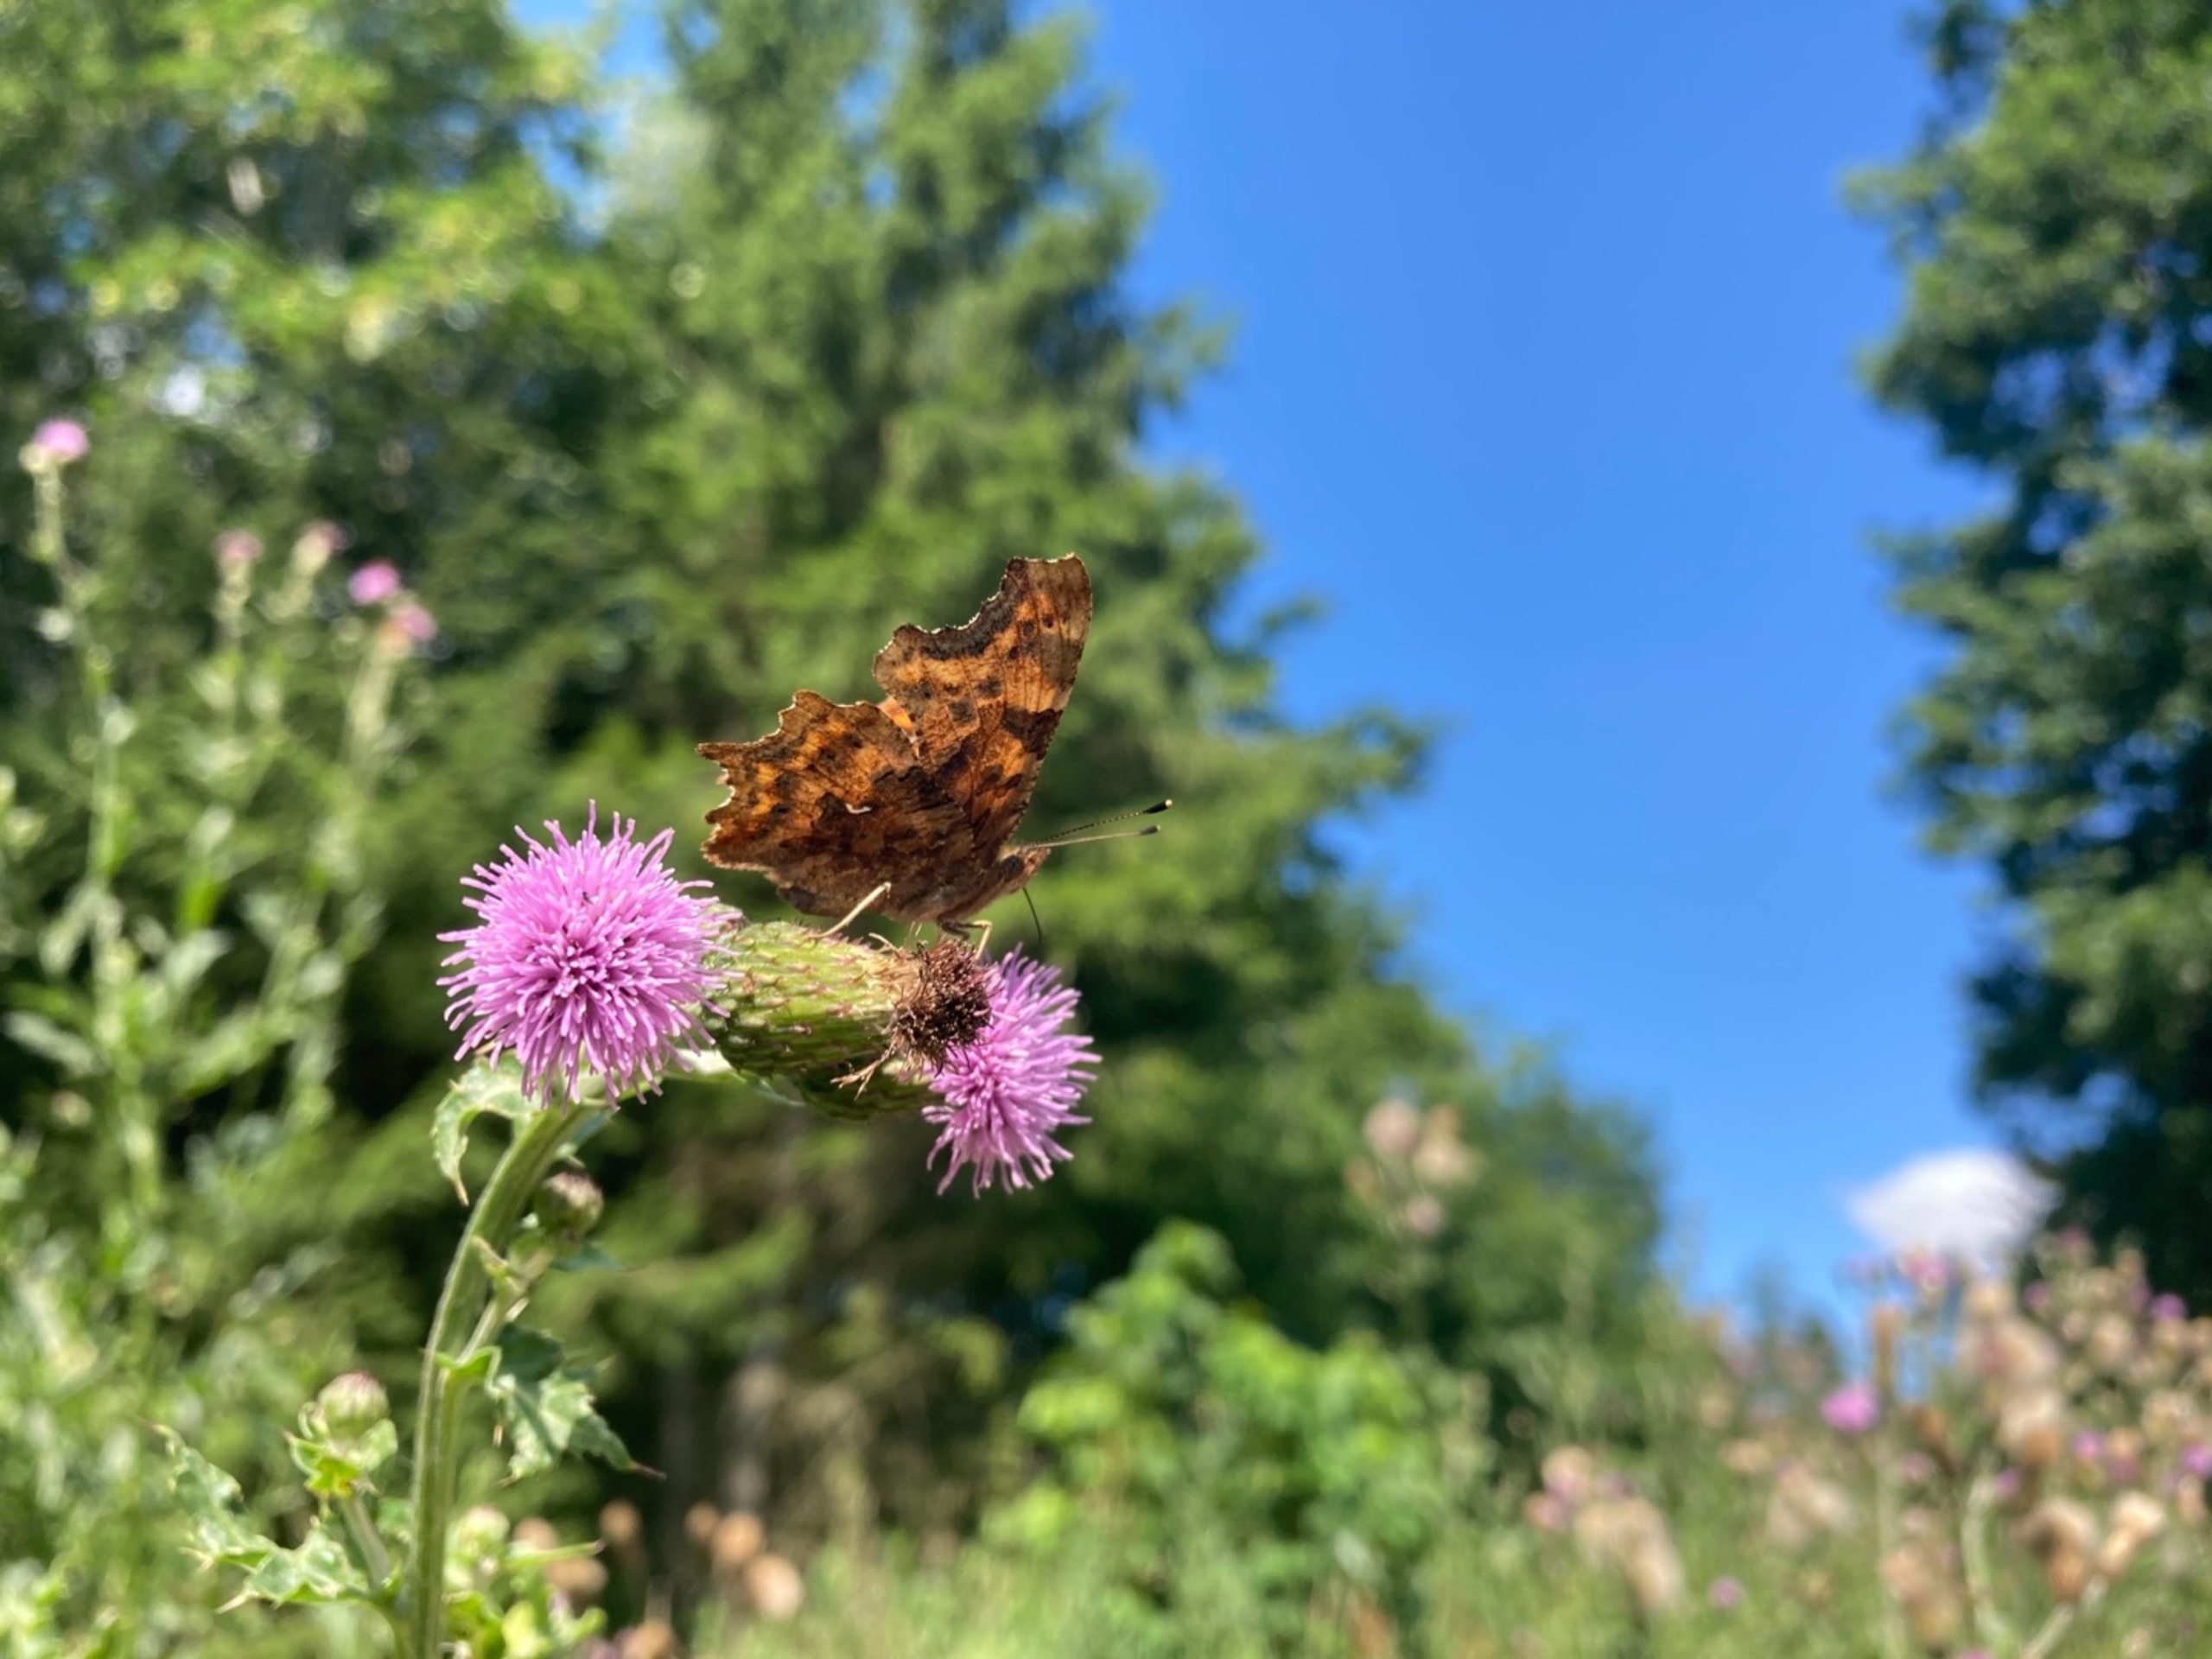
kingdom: Animalia
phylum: Arthropoda
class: Insecta
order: Lepidoptera
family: Nymphalidae
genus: Polygonia
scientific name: Polygonia c-album
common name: Det hvide C
